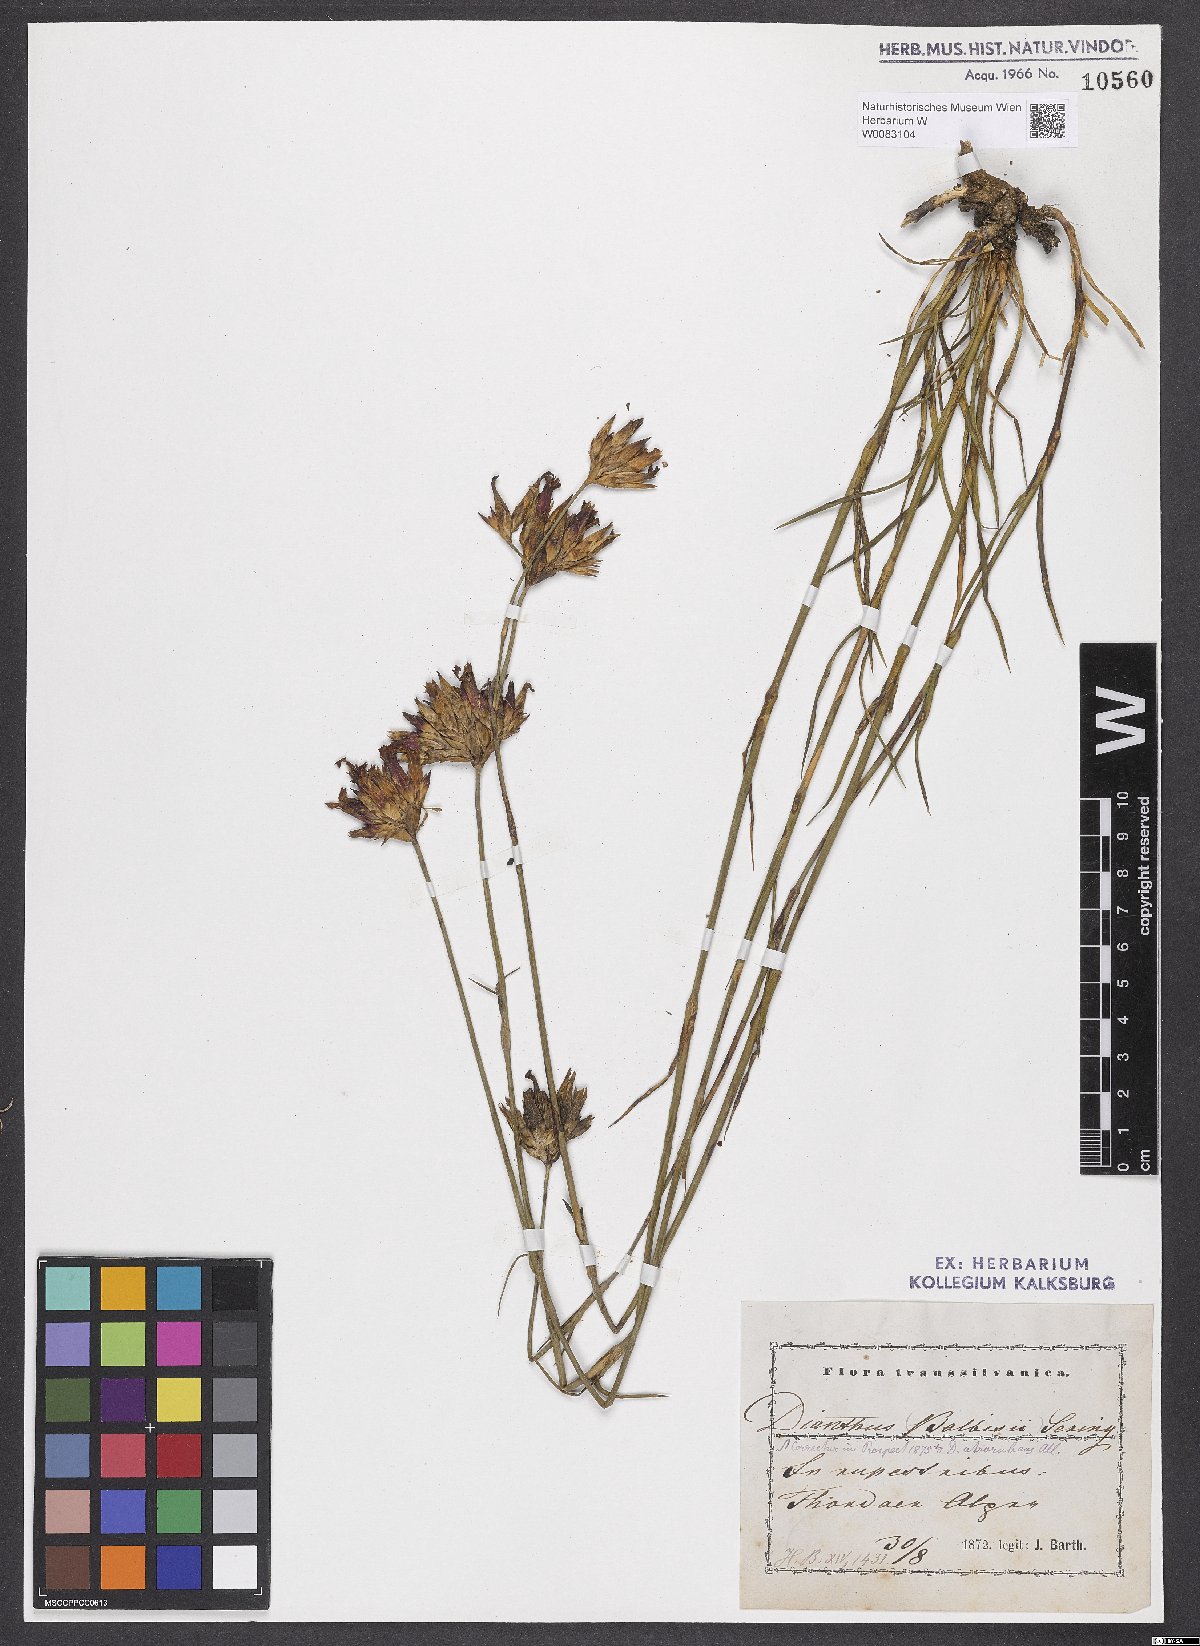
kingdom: Plantae
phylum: Tracheophyta
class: Magnoliopsida
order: Caryophyllales
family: Caryophyllaceae
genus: Dianthus
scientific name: Dianthus crassipes
